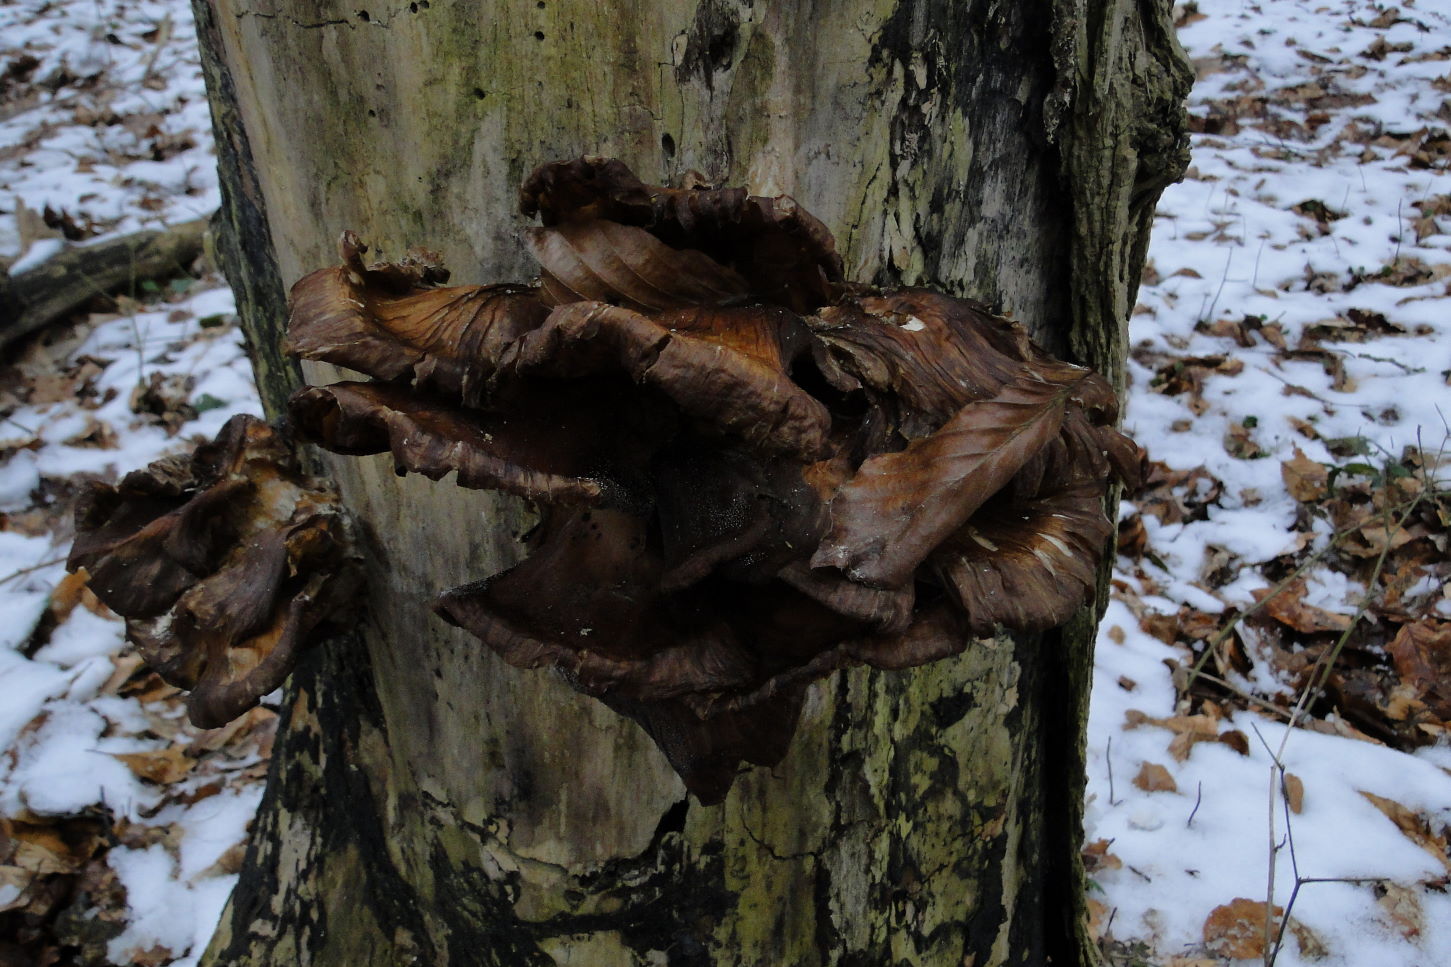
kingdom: Fungi
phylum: Basidiomycota
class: Agaricomycetes
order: Agaricales
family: Pleurotaceae
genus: Pleurotus
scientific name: Pleurotus ostreatus
